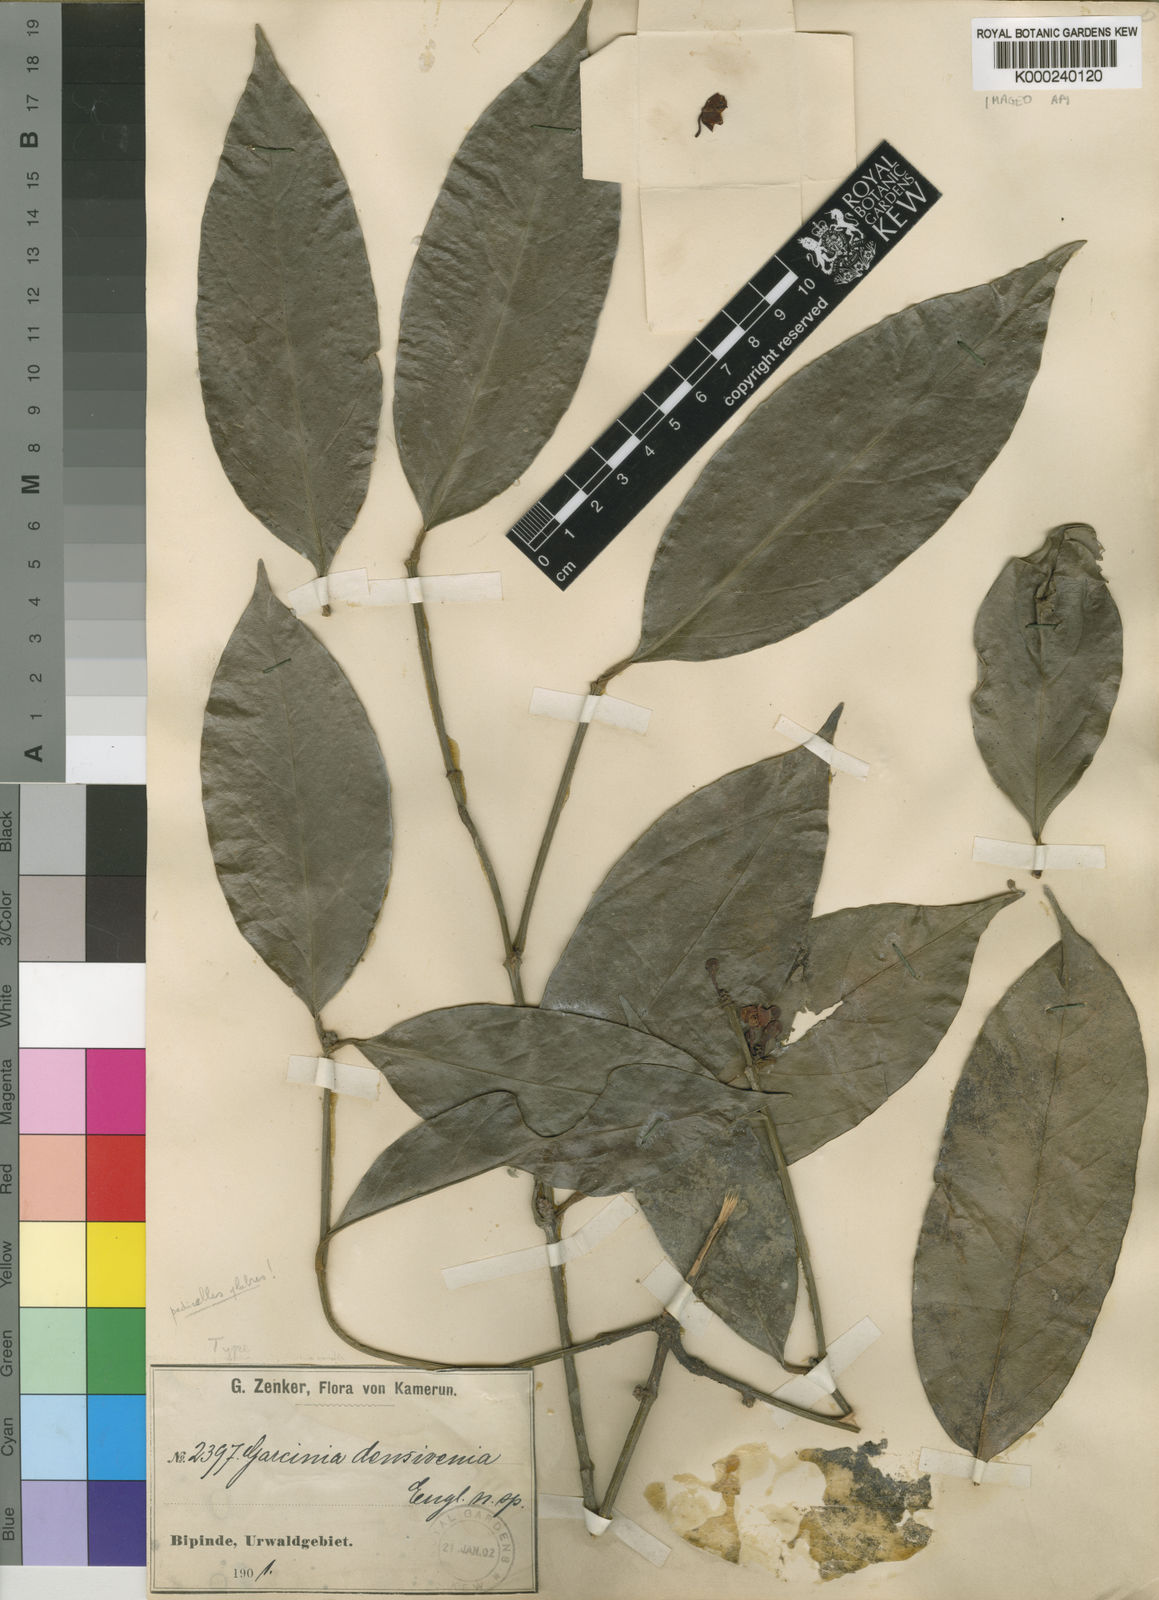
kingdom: Plantae
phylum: Tracheophyta
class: Magnoliopsida
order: Malpighiales
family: Clusiaceae
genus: Garcinia
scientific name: Garcinia densivenia
